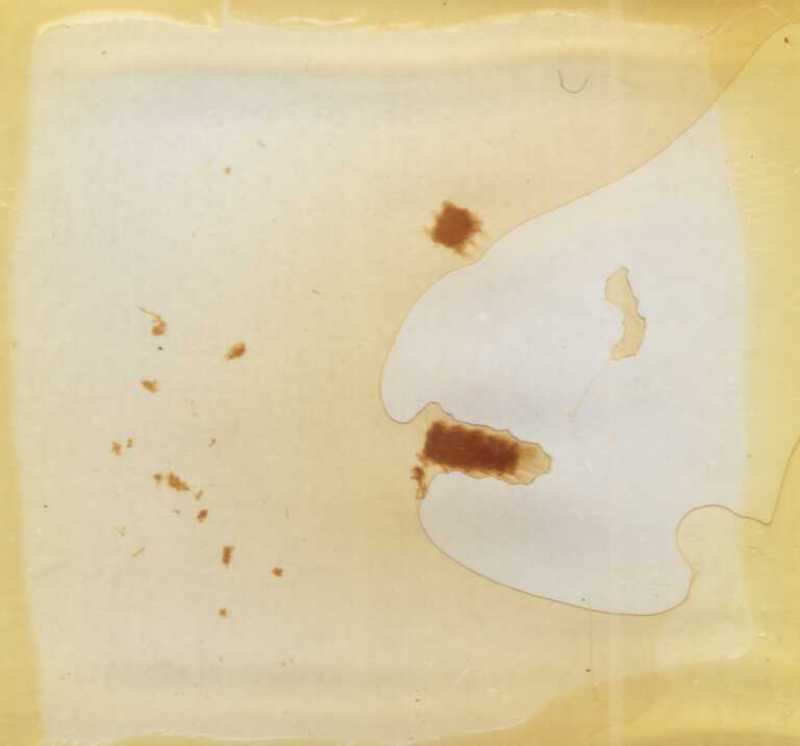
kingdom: Animalia
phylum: Arthropoda
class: Diplopoda
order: Polyxenida
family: Polyxenidae
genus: Propolyxenus
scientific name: Propolyxenus argentifer
